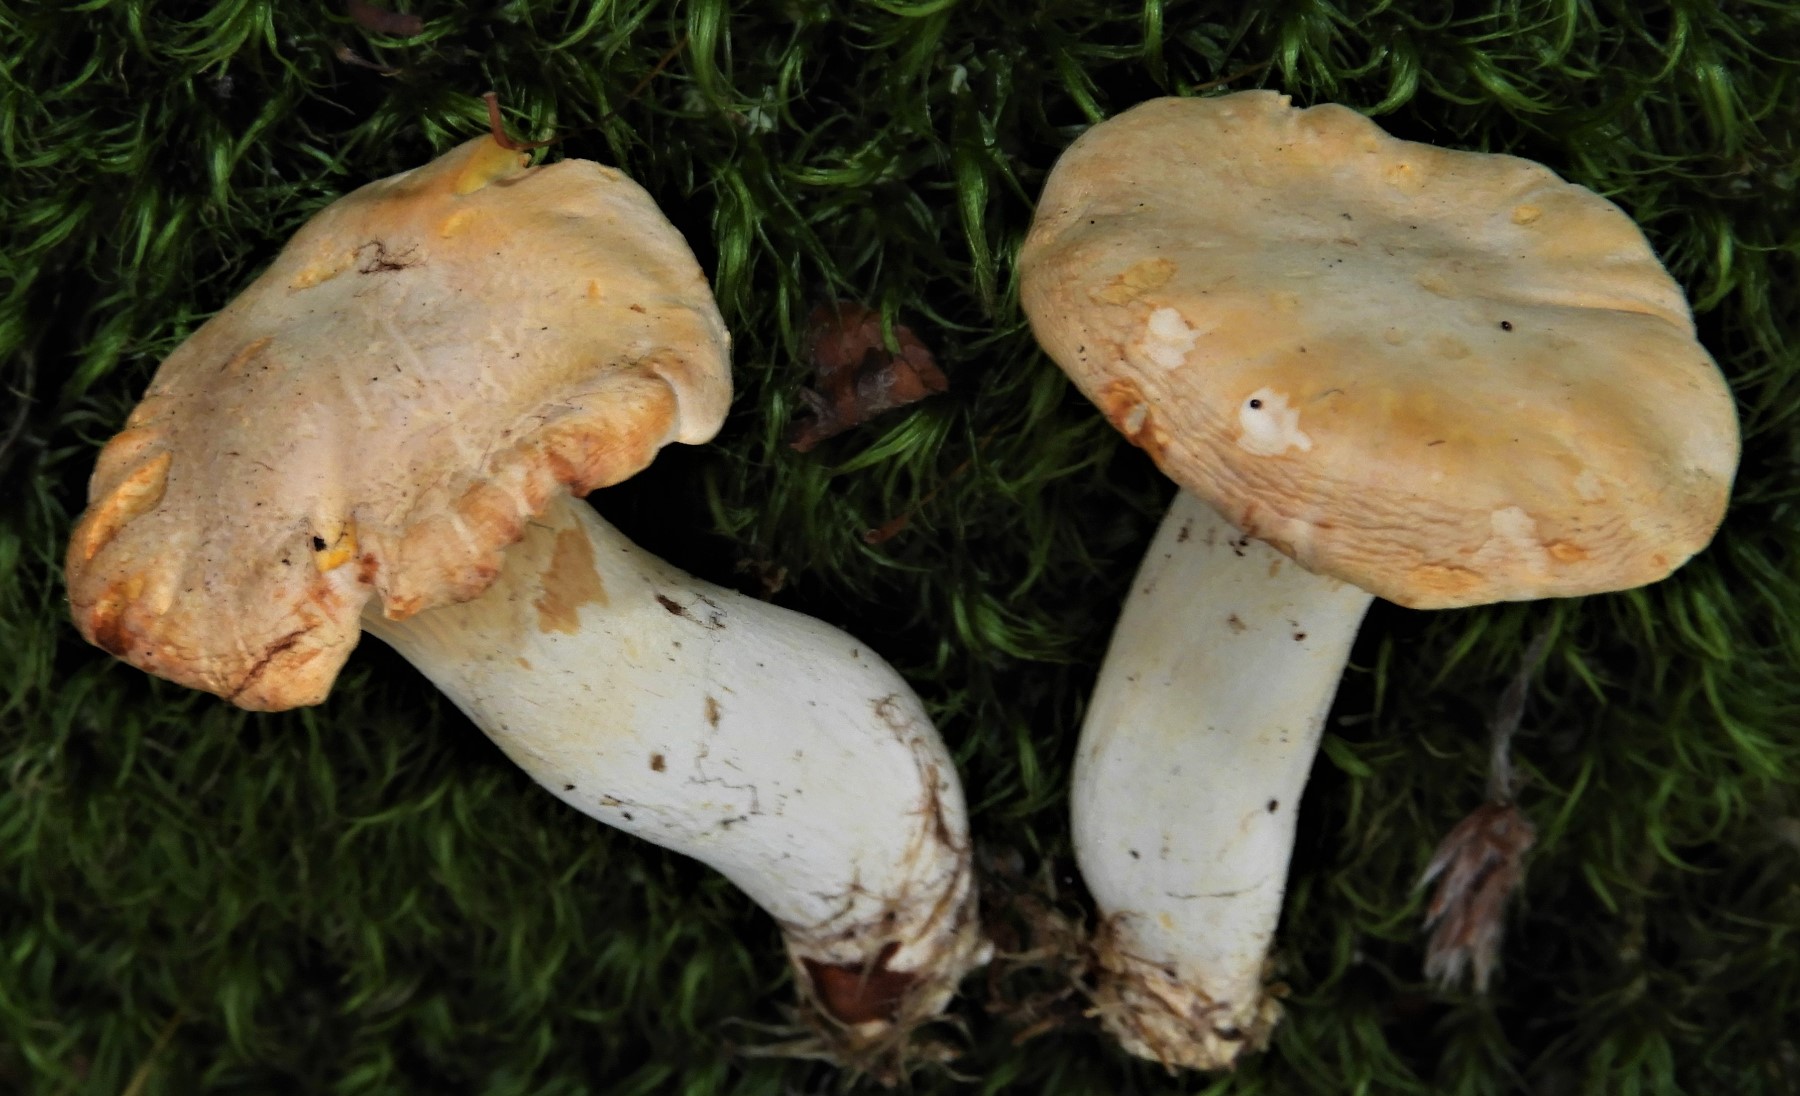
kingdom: Fungi
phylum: Basidiomycota
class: Agaricomycetes
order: Cantharellales
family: Hydnaceae
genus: Cantharellus
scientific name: Cantharellus cibarius
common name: almindelig kantarel
